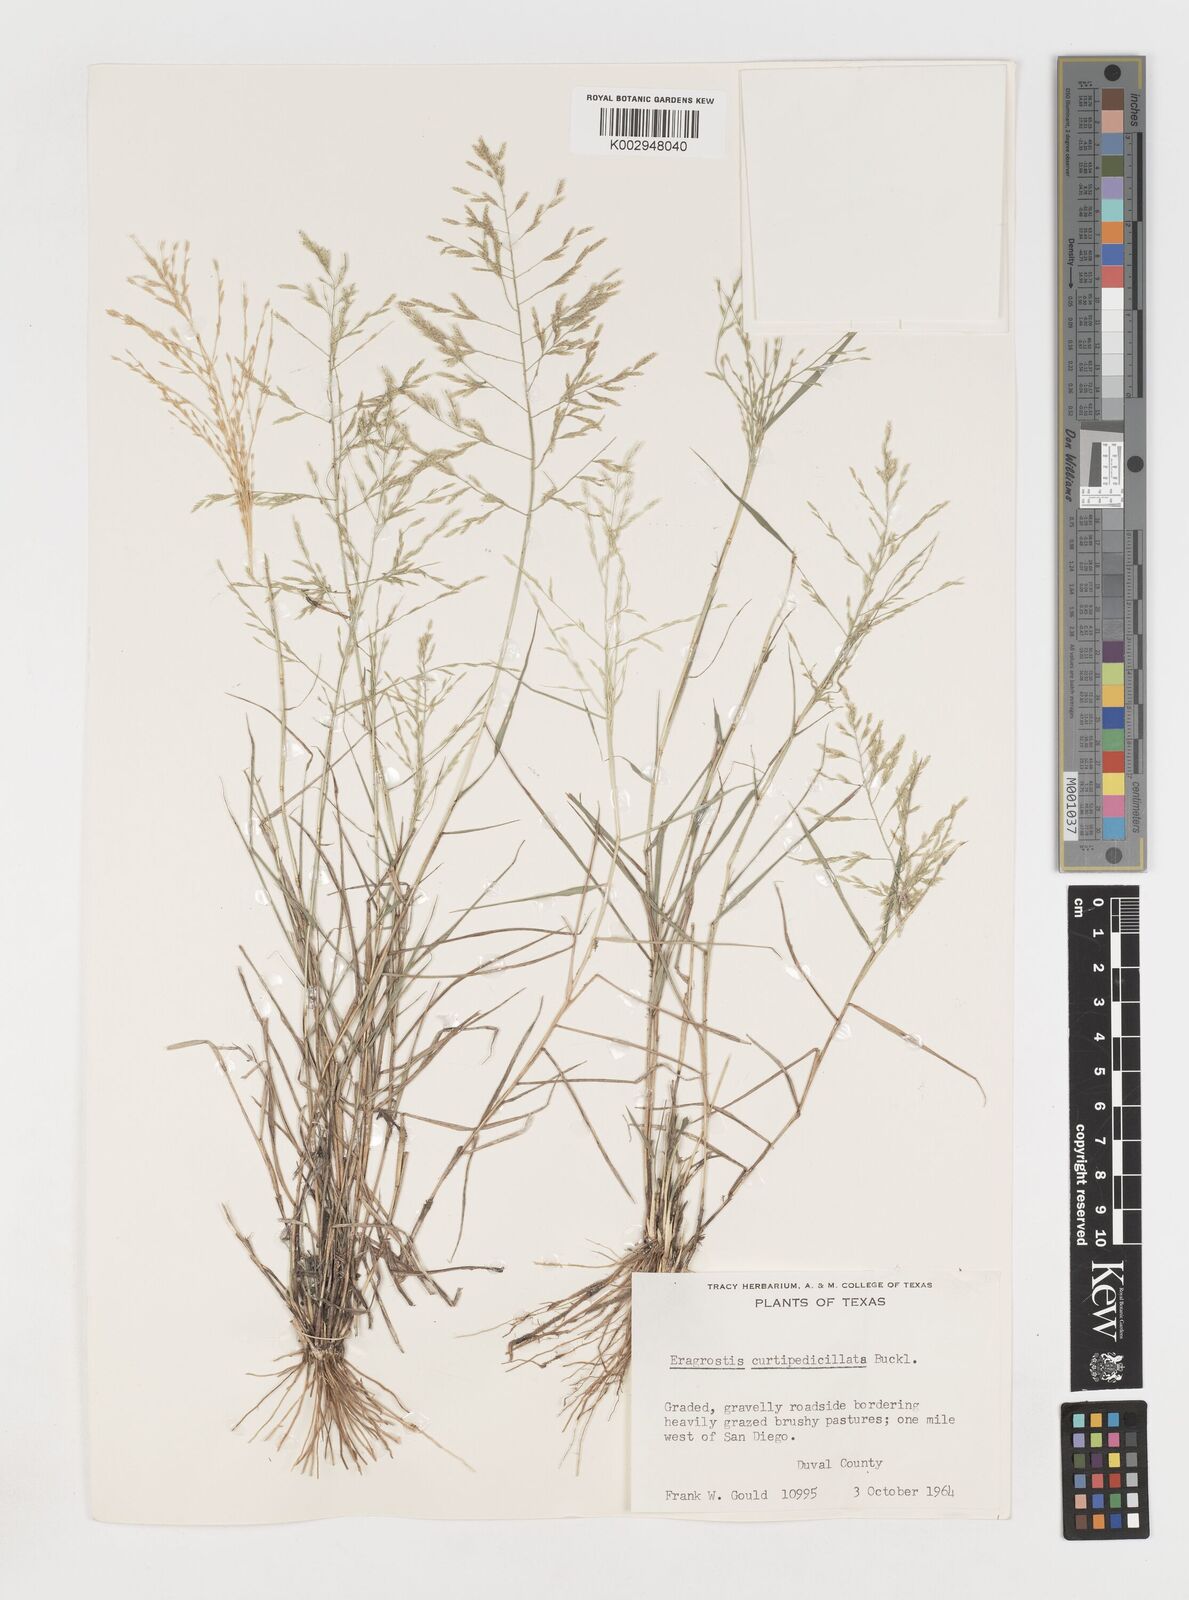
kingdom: Plantae
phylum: Tracheophyta
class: Liliopsida
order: Poales
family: Poaceae
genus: Eragrostis
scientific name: Eragrostis curtipedicellata
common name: Gummy love grass
